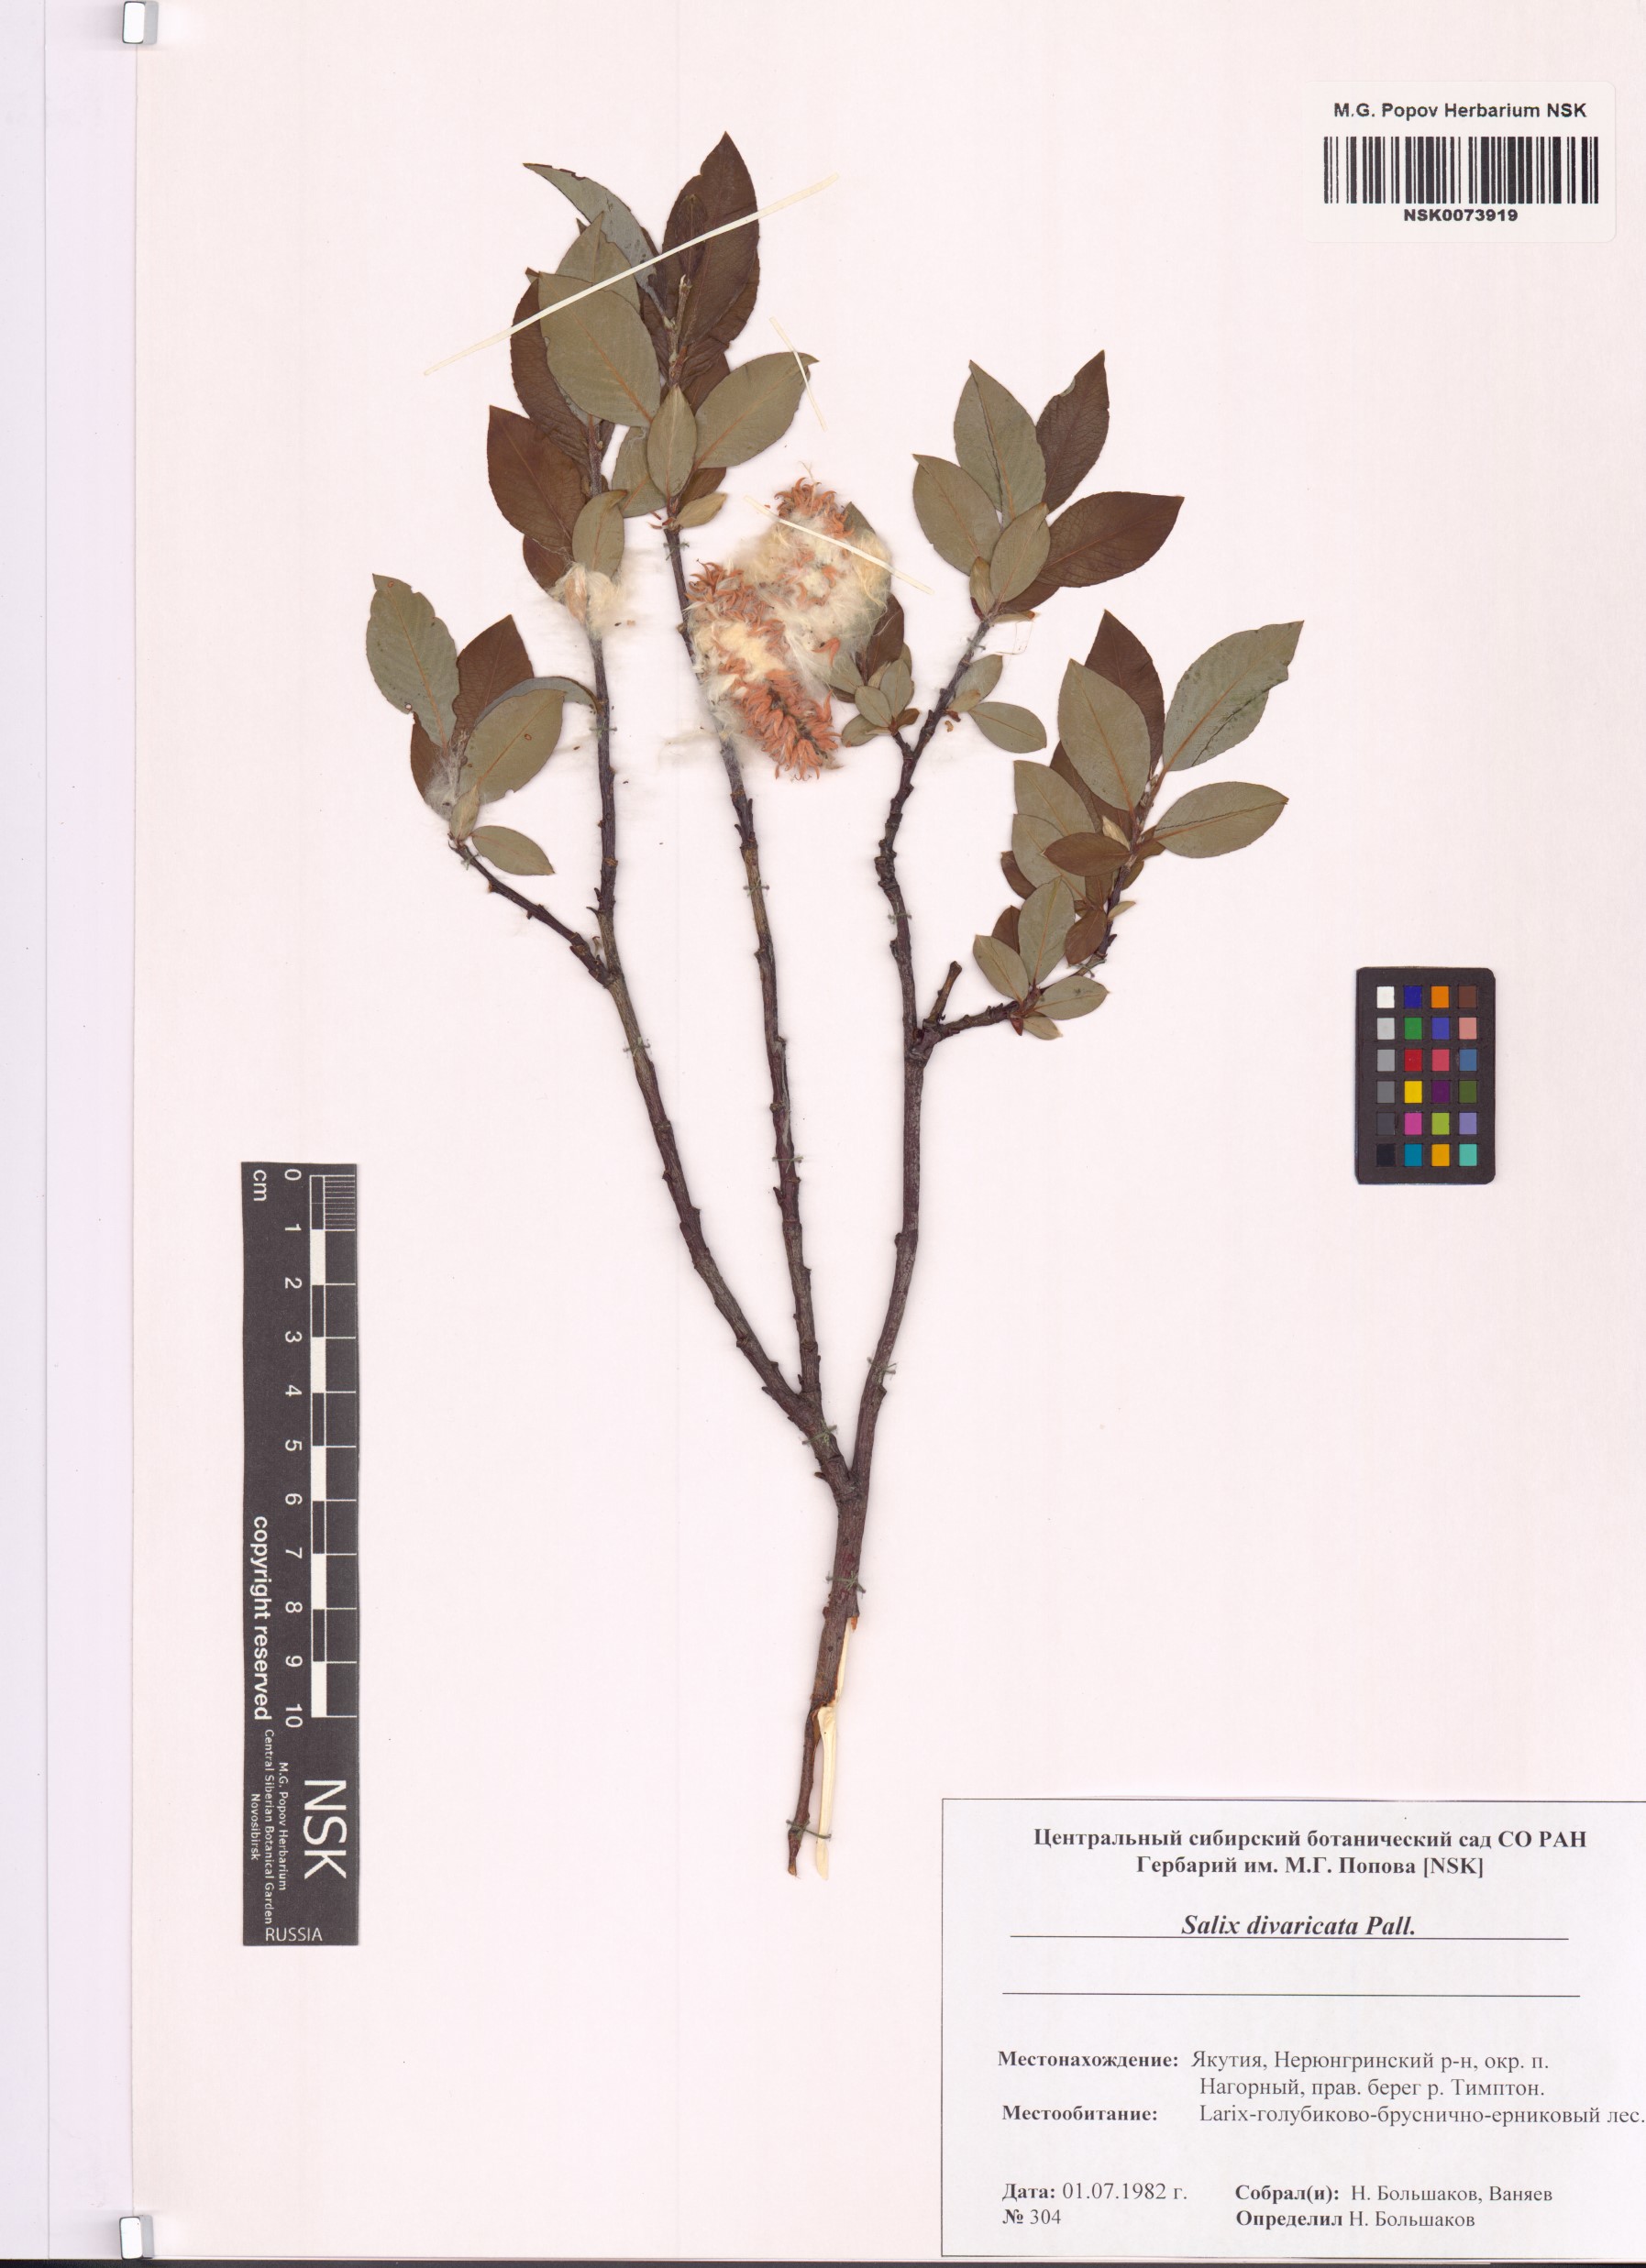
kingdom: Plantae
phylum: Tracheophyta
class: Magnoliopsida
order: Malpighiales
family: Salicaceae
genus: Salix
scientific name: Salix divaricata
